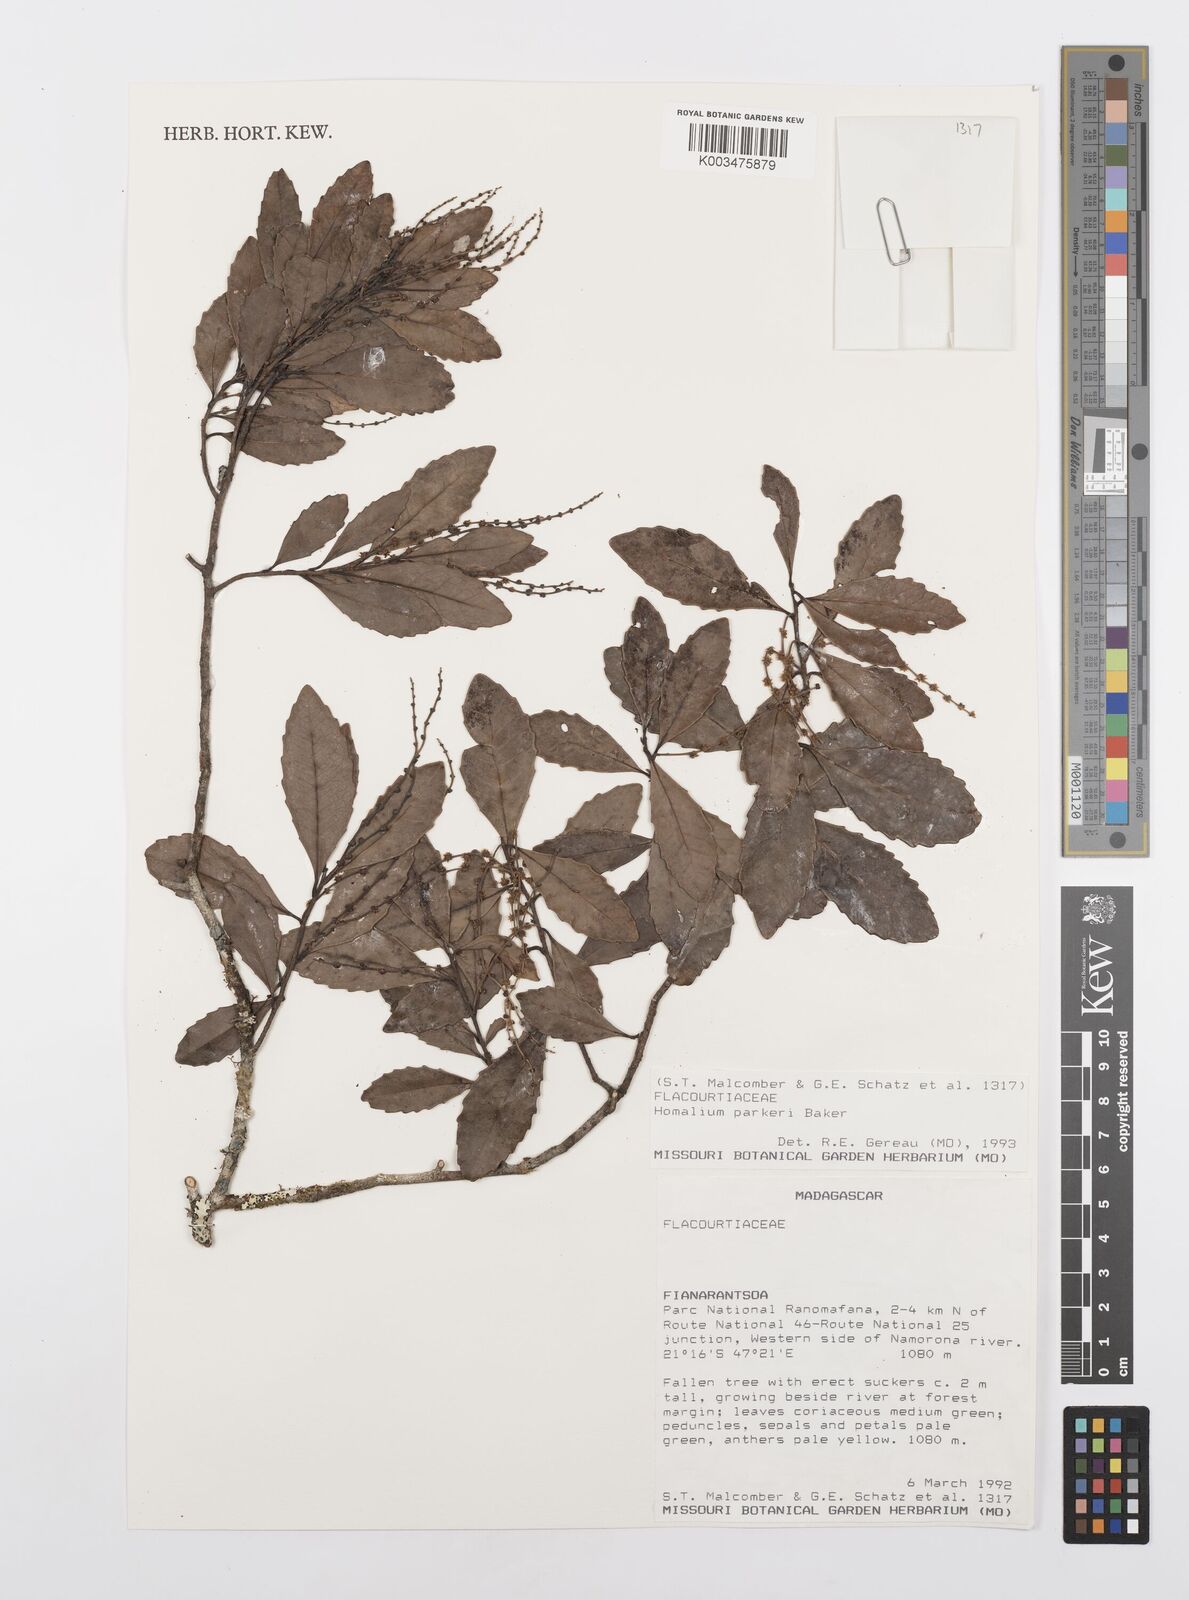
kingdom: Plantae
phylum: Tracheophyta
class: Magnoliopsida
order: Malpighiales
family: Salicaceae
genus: Homalium
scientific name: Homalium parkeri
